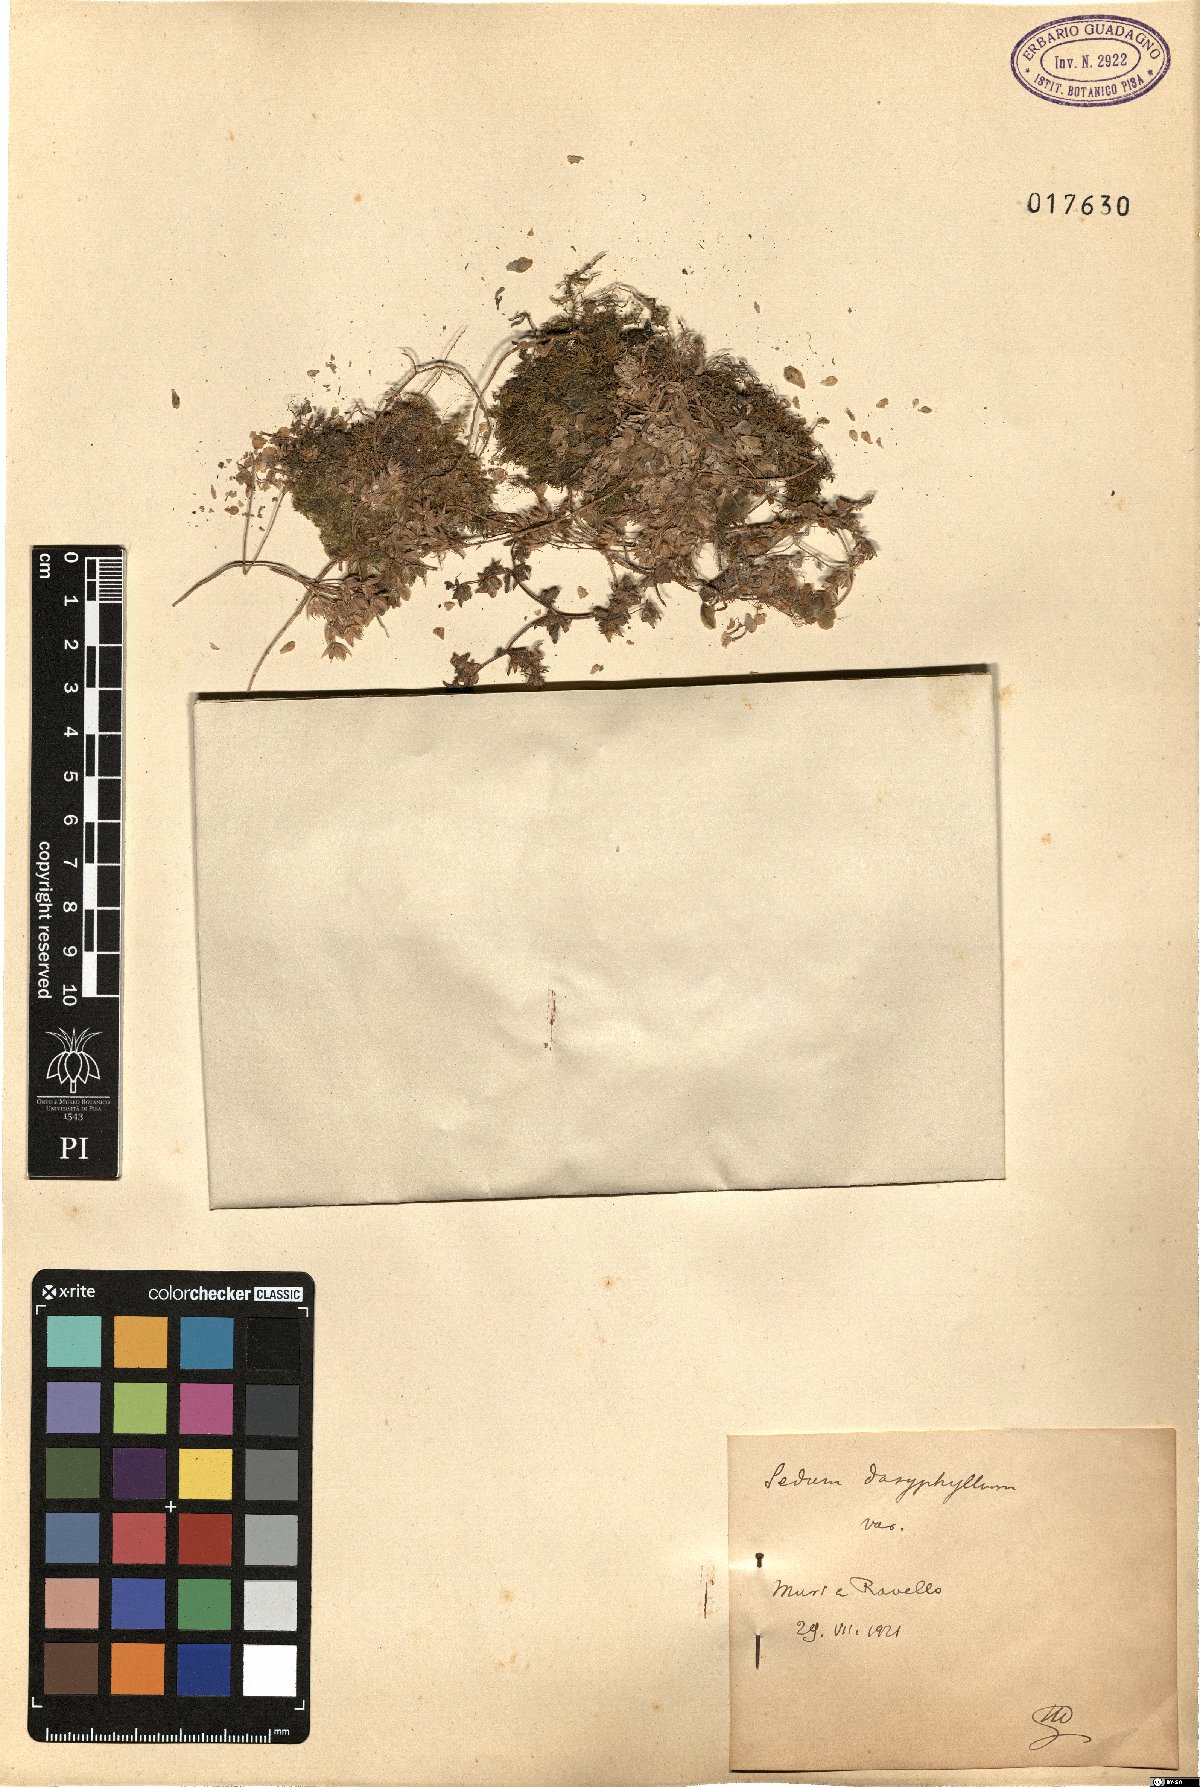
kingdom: Plantae
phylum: Tracheophyta
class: Magnoliopsida
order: Saxifragales
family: Crassulaceae
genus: Sedum
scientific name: Sedum dasyphyllum
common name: Thick-leaf stonecrop
